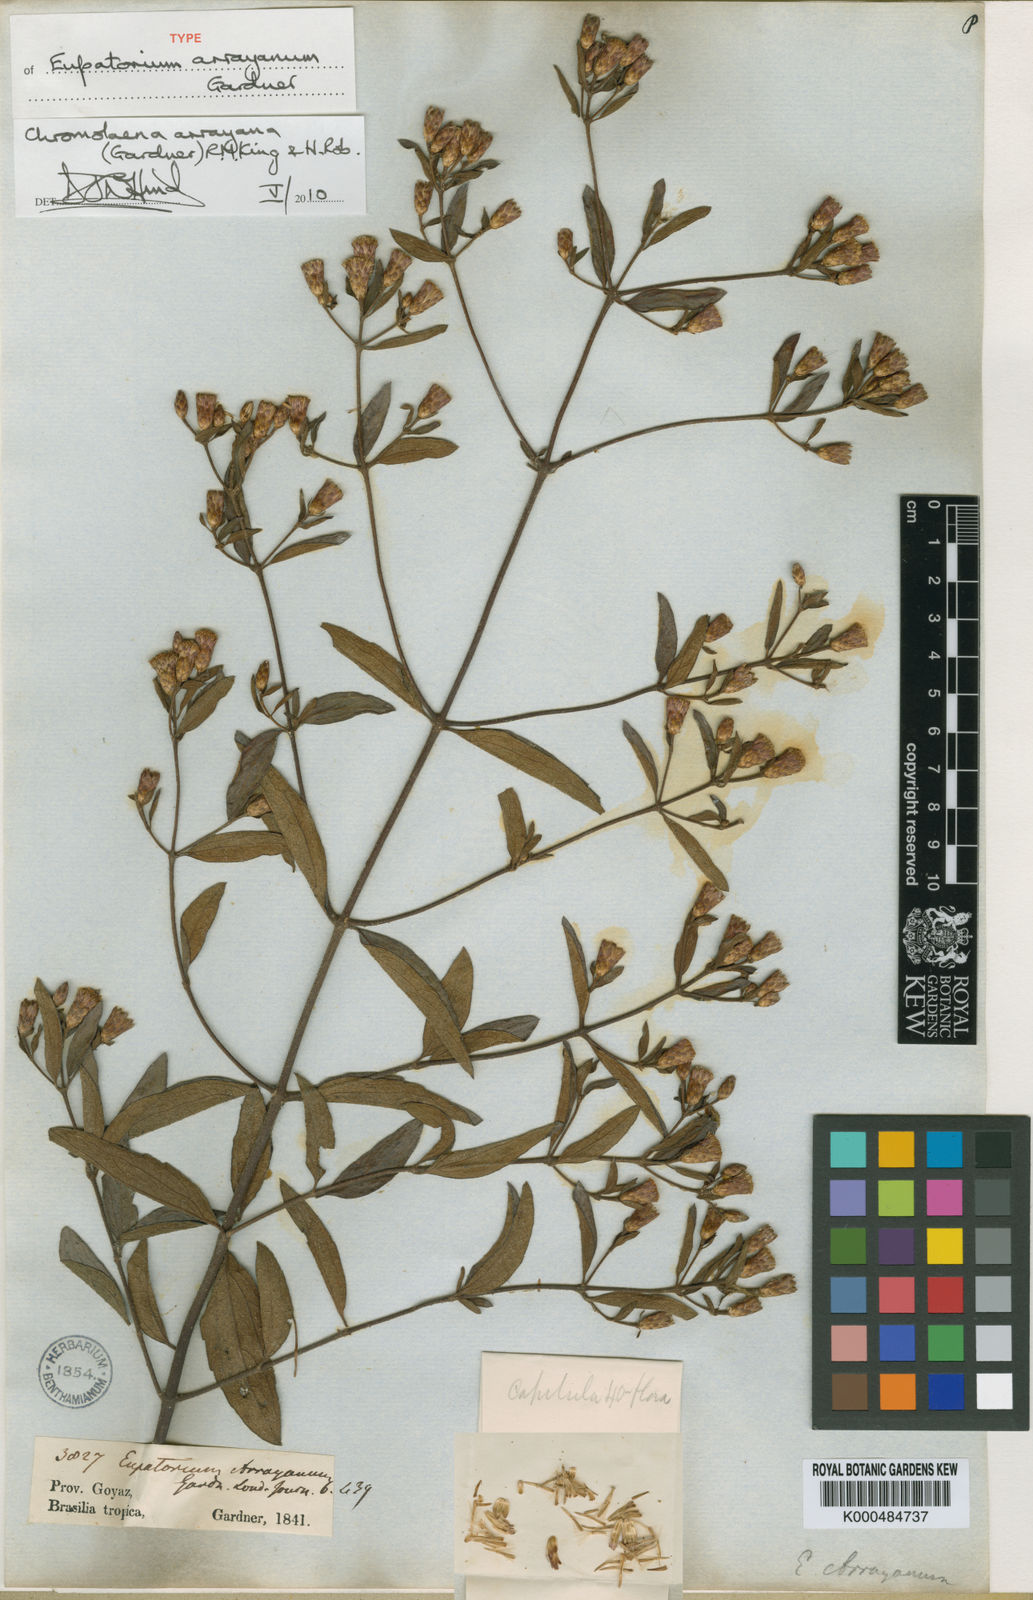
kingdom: Plantae
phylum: Tracheophyta
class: Magnoliopsida
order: Asterales
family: Asteraceae
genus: Chromolaena
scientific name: Chromolaena arrayana
